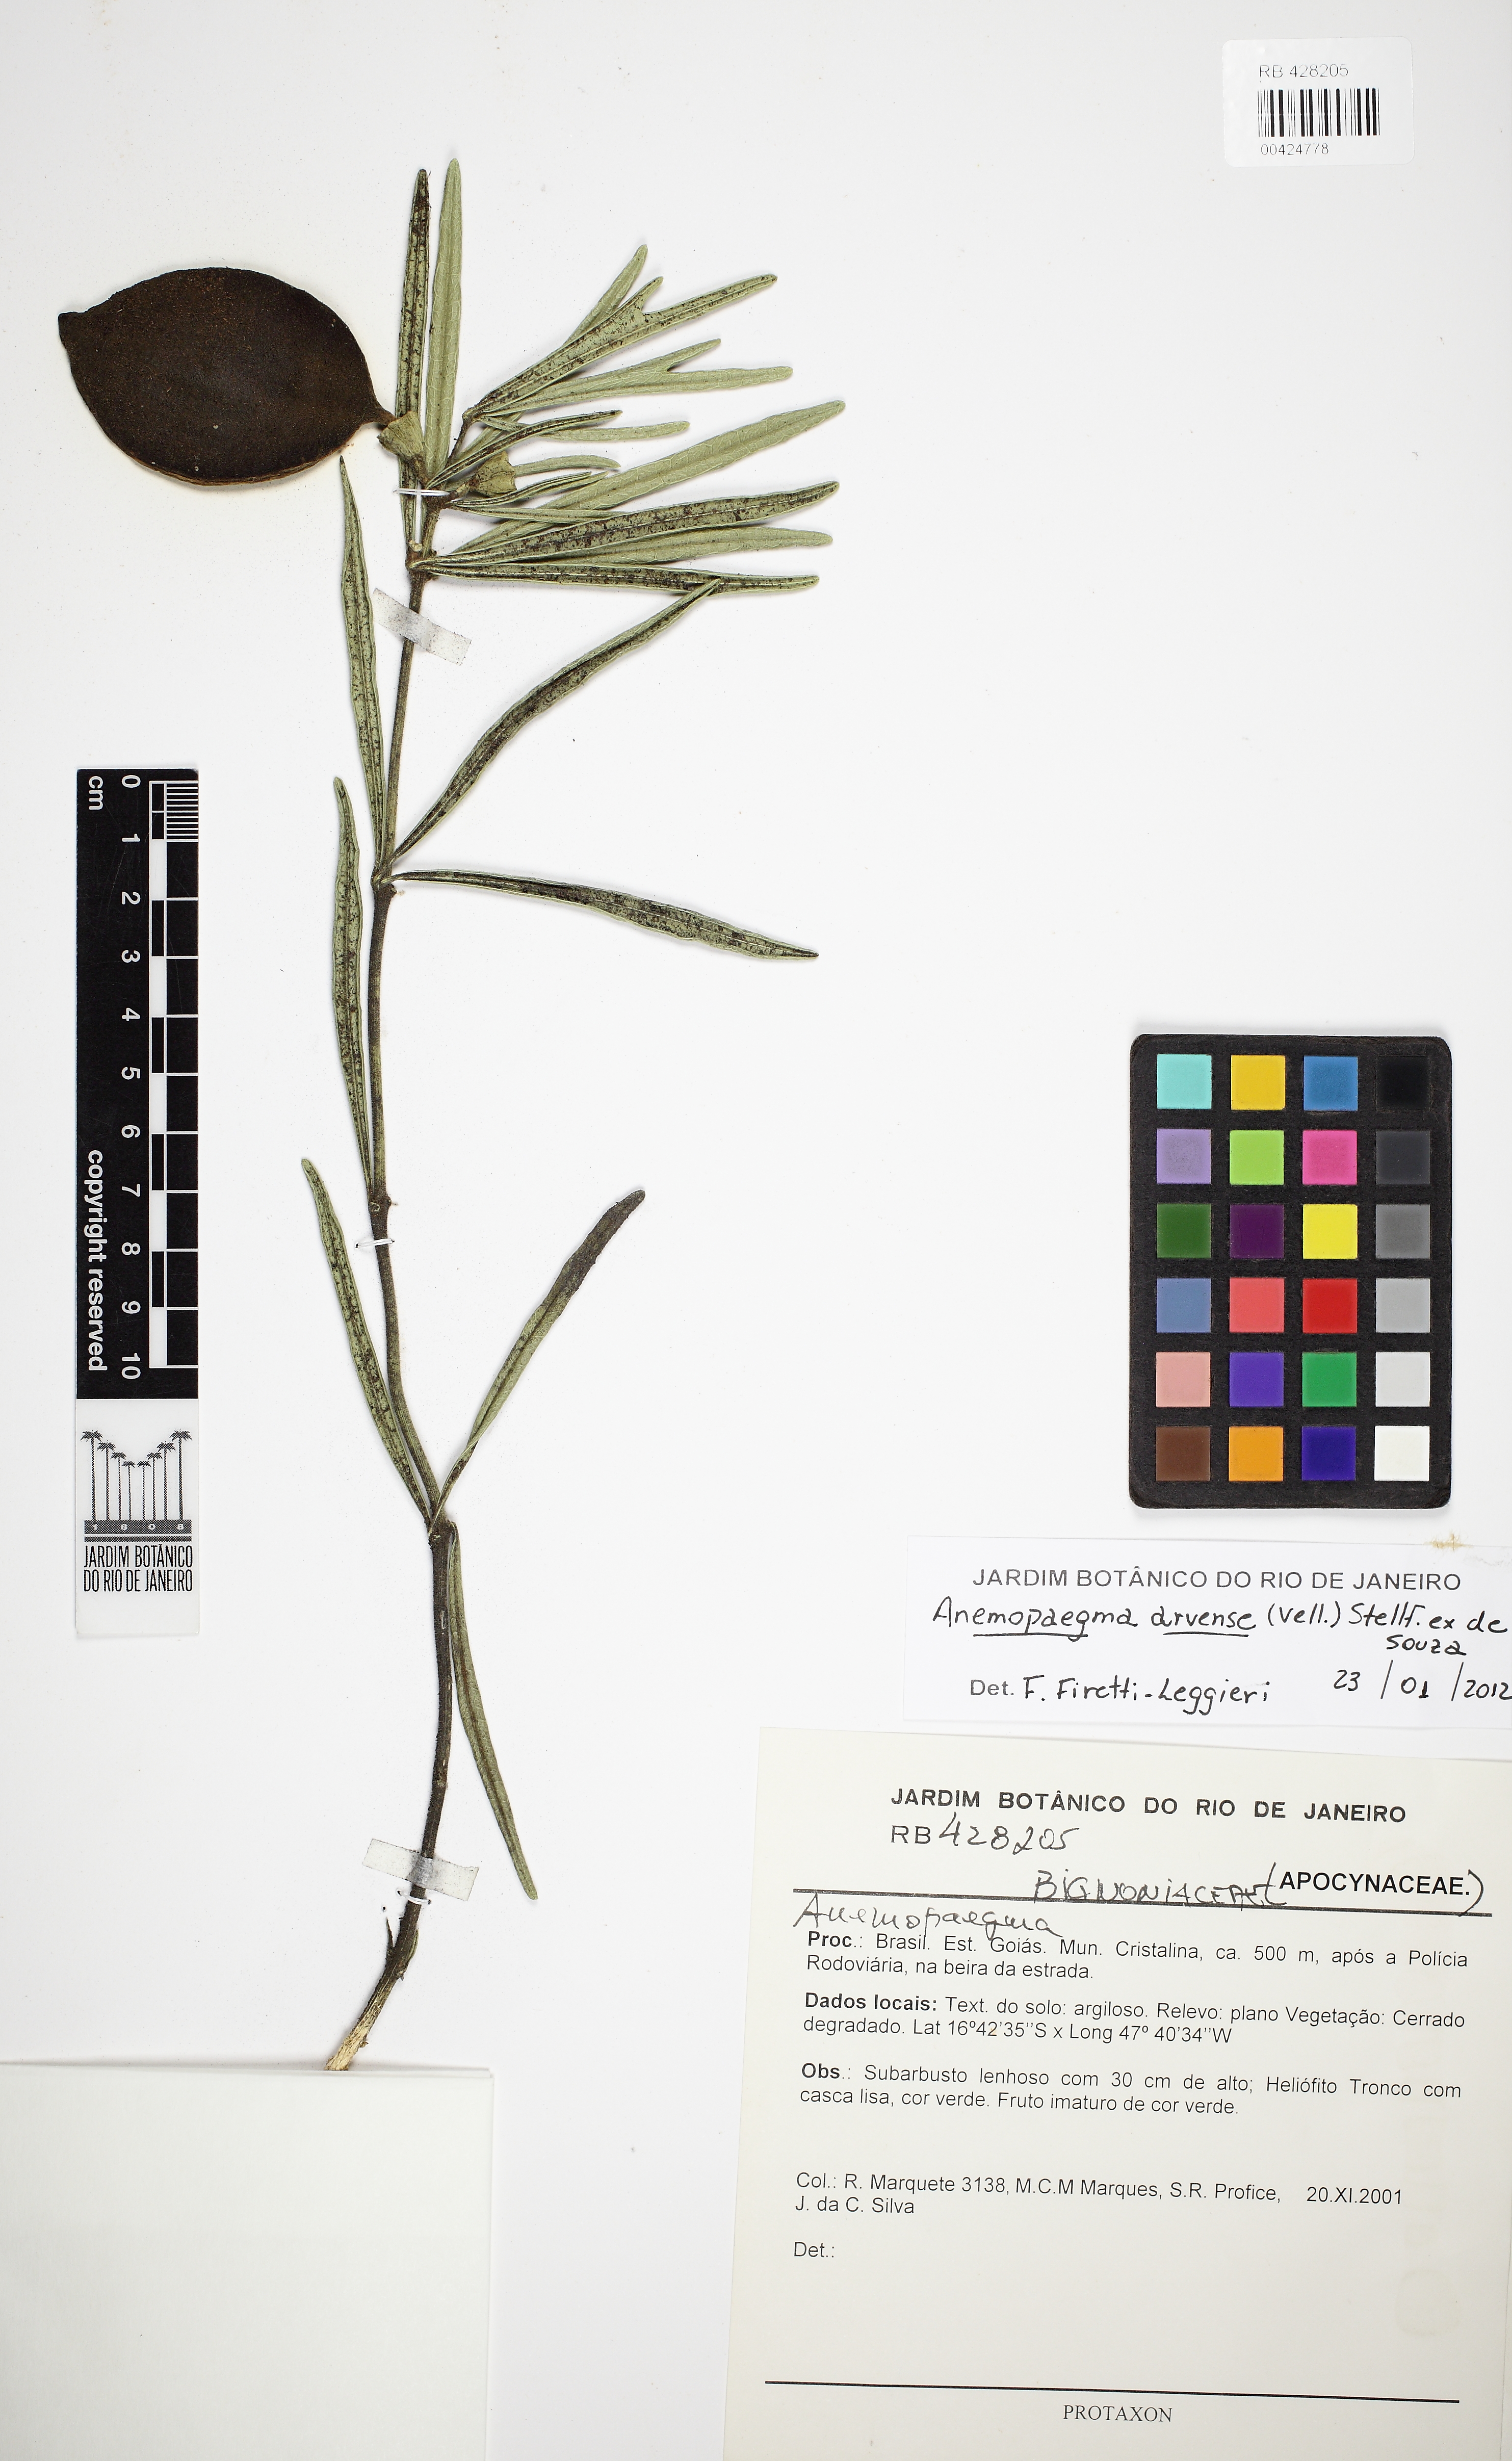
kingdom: Plantae
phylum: Tracheophyta
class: Magnoliopsida
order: Lamiales
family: Bignoniaceae
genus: Anemopaegma
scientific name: Anemopaegma arvense
